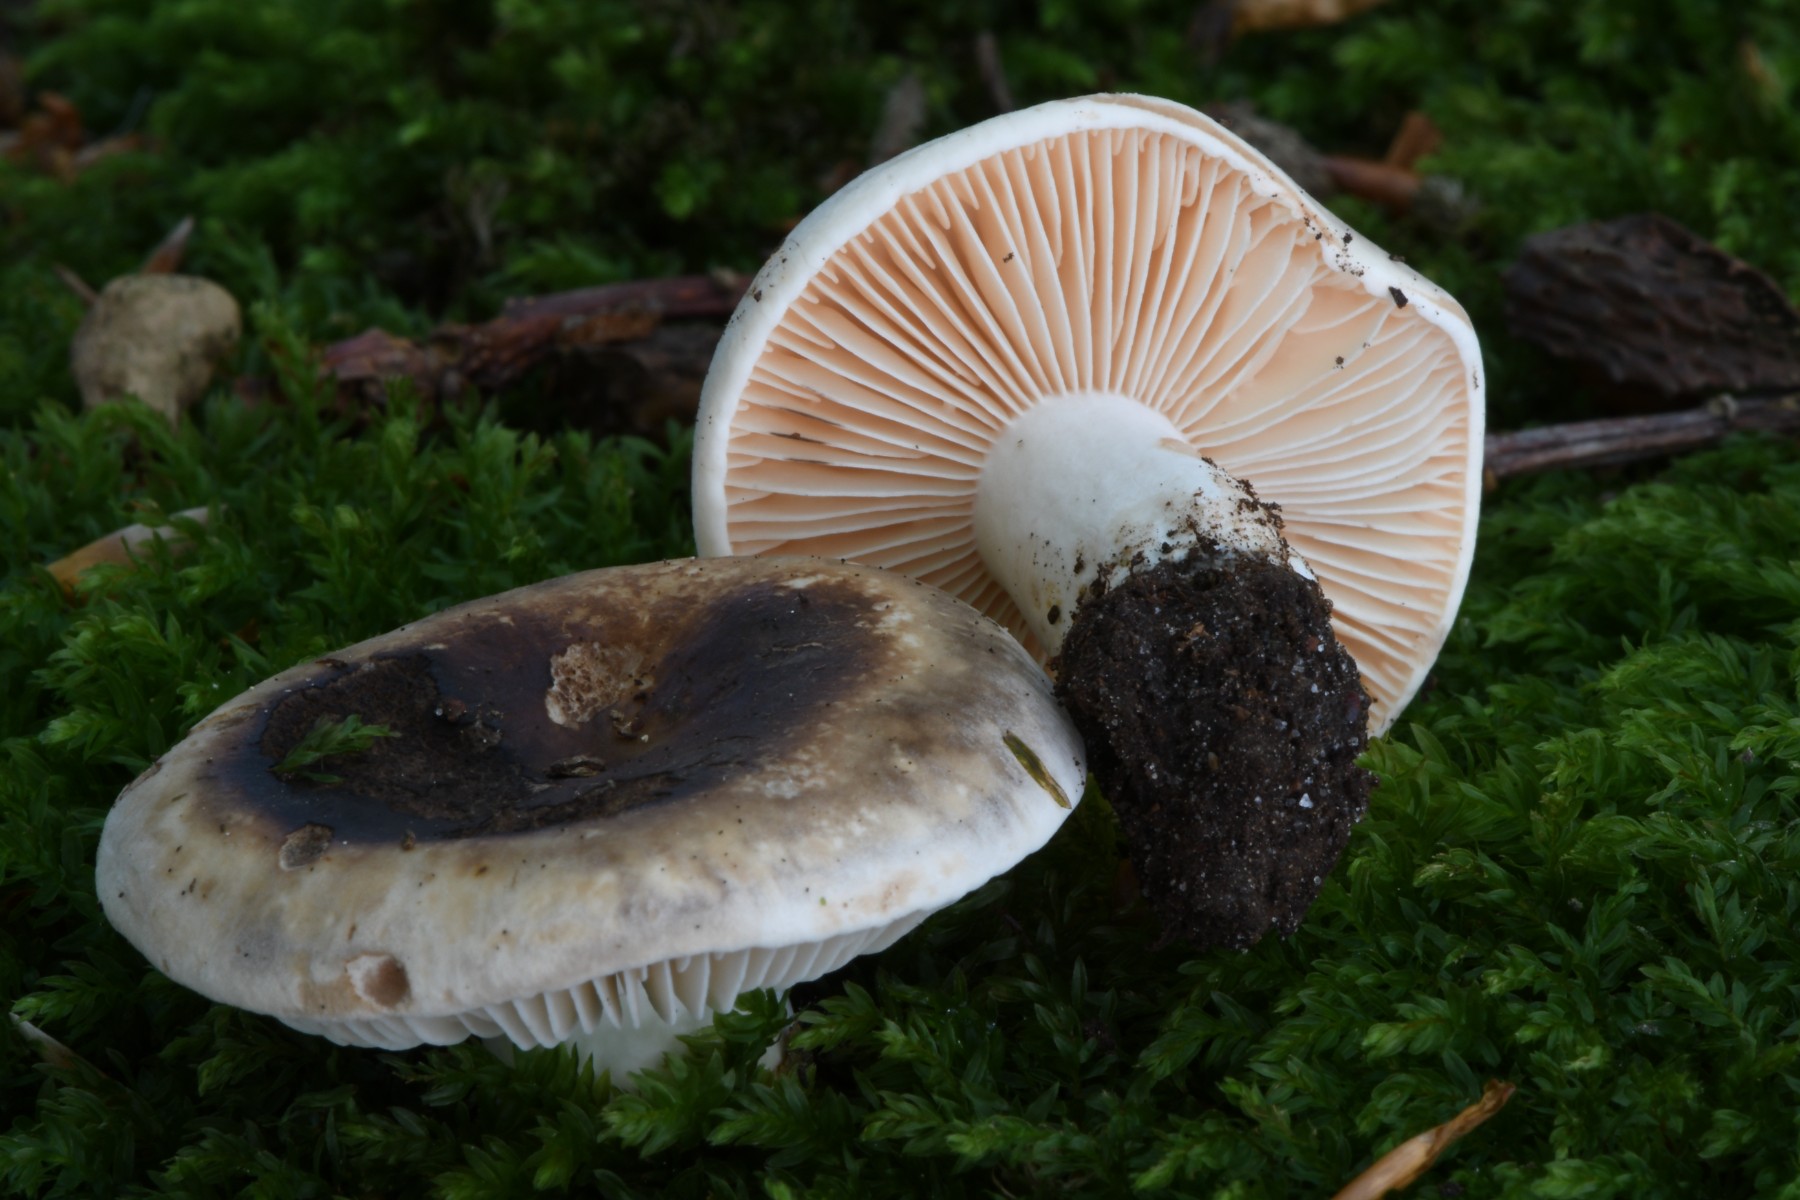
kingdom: Fungi
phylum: Basidiomycota
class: Agaricomycetes
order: Russulales
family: Russulaceae
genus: Russula
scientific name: Russula adusta
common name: sværtende skørhat
